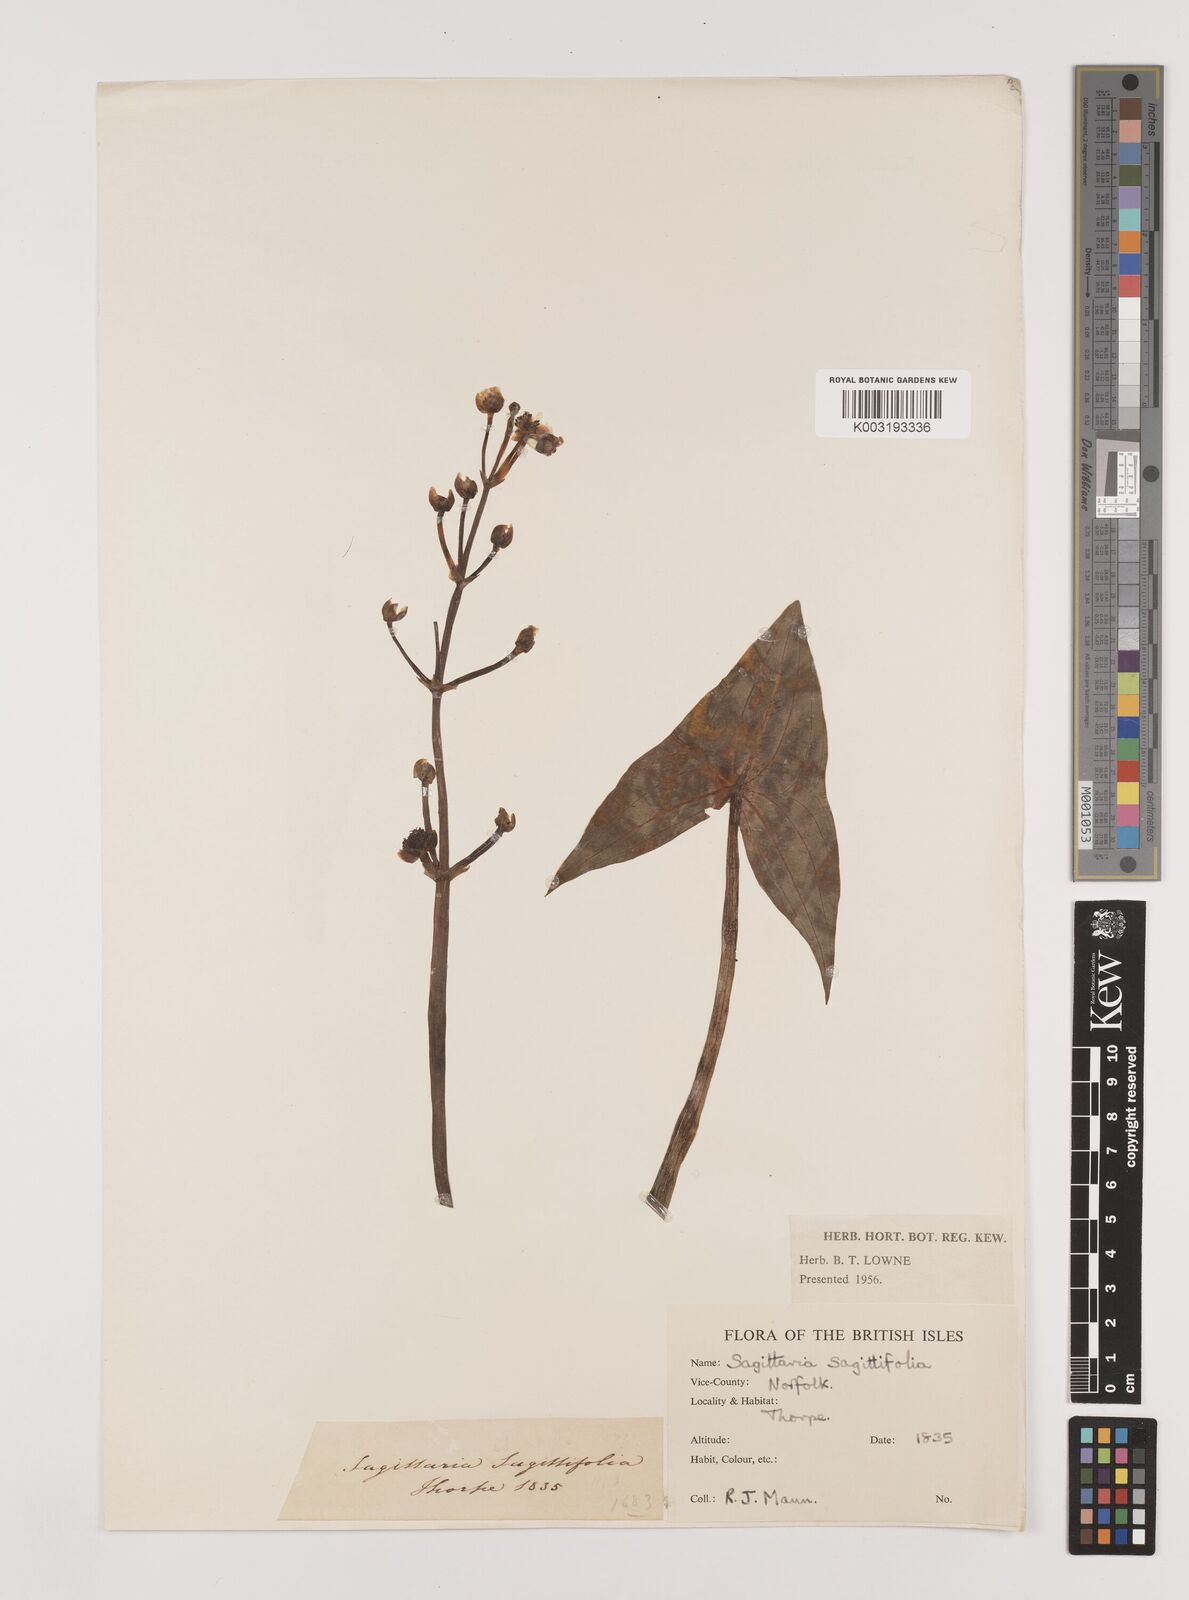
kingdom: Plantae
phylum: Tracheophyta
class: Liliopsida
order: Alismatales
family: Alismataceae
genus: Sagittaria
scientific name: Sagittaria sagittifolia
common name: Arrowhead
